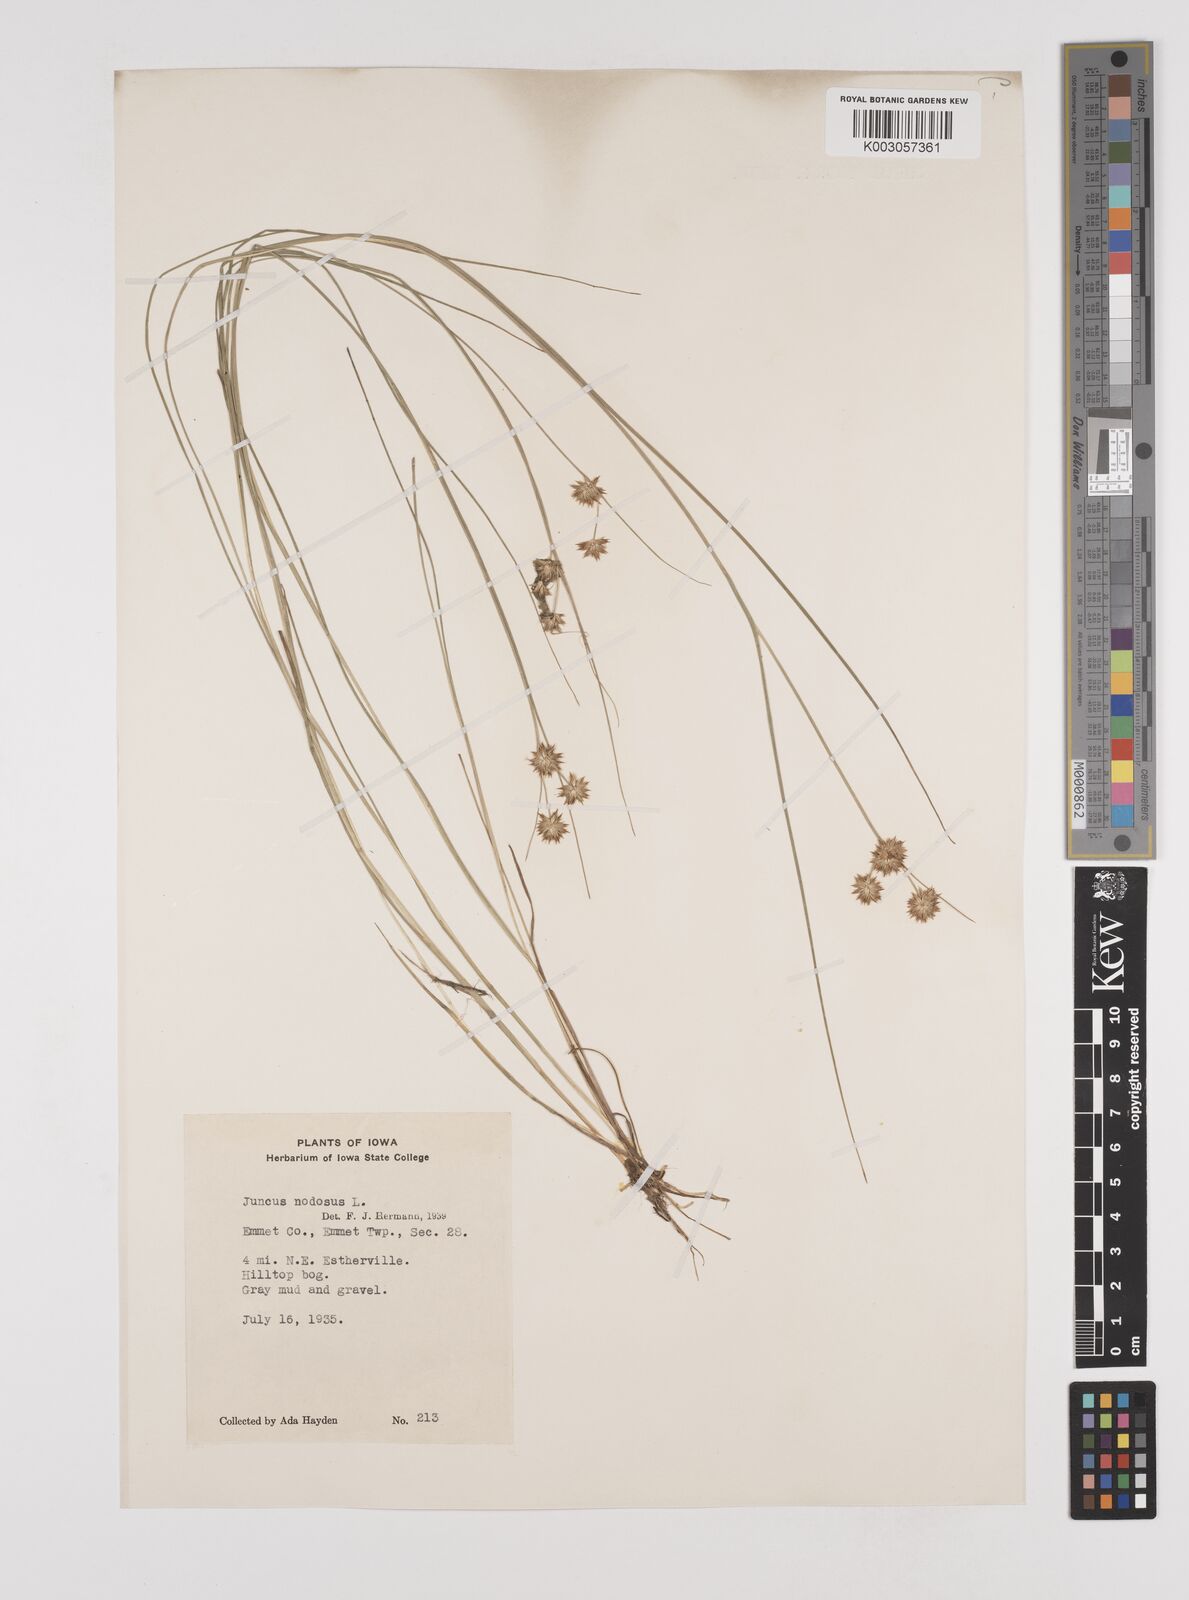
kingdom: Plantae
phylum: Tracheophyta
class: Liliopsida
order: Poales
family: Juncaceae
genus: Juncus
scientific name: Juncus nodosus
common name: Knotted rush
